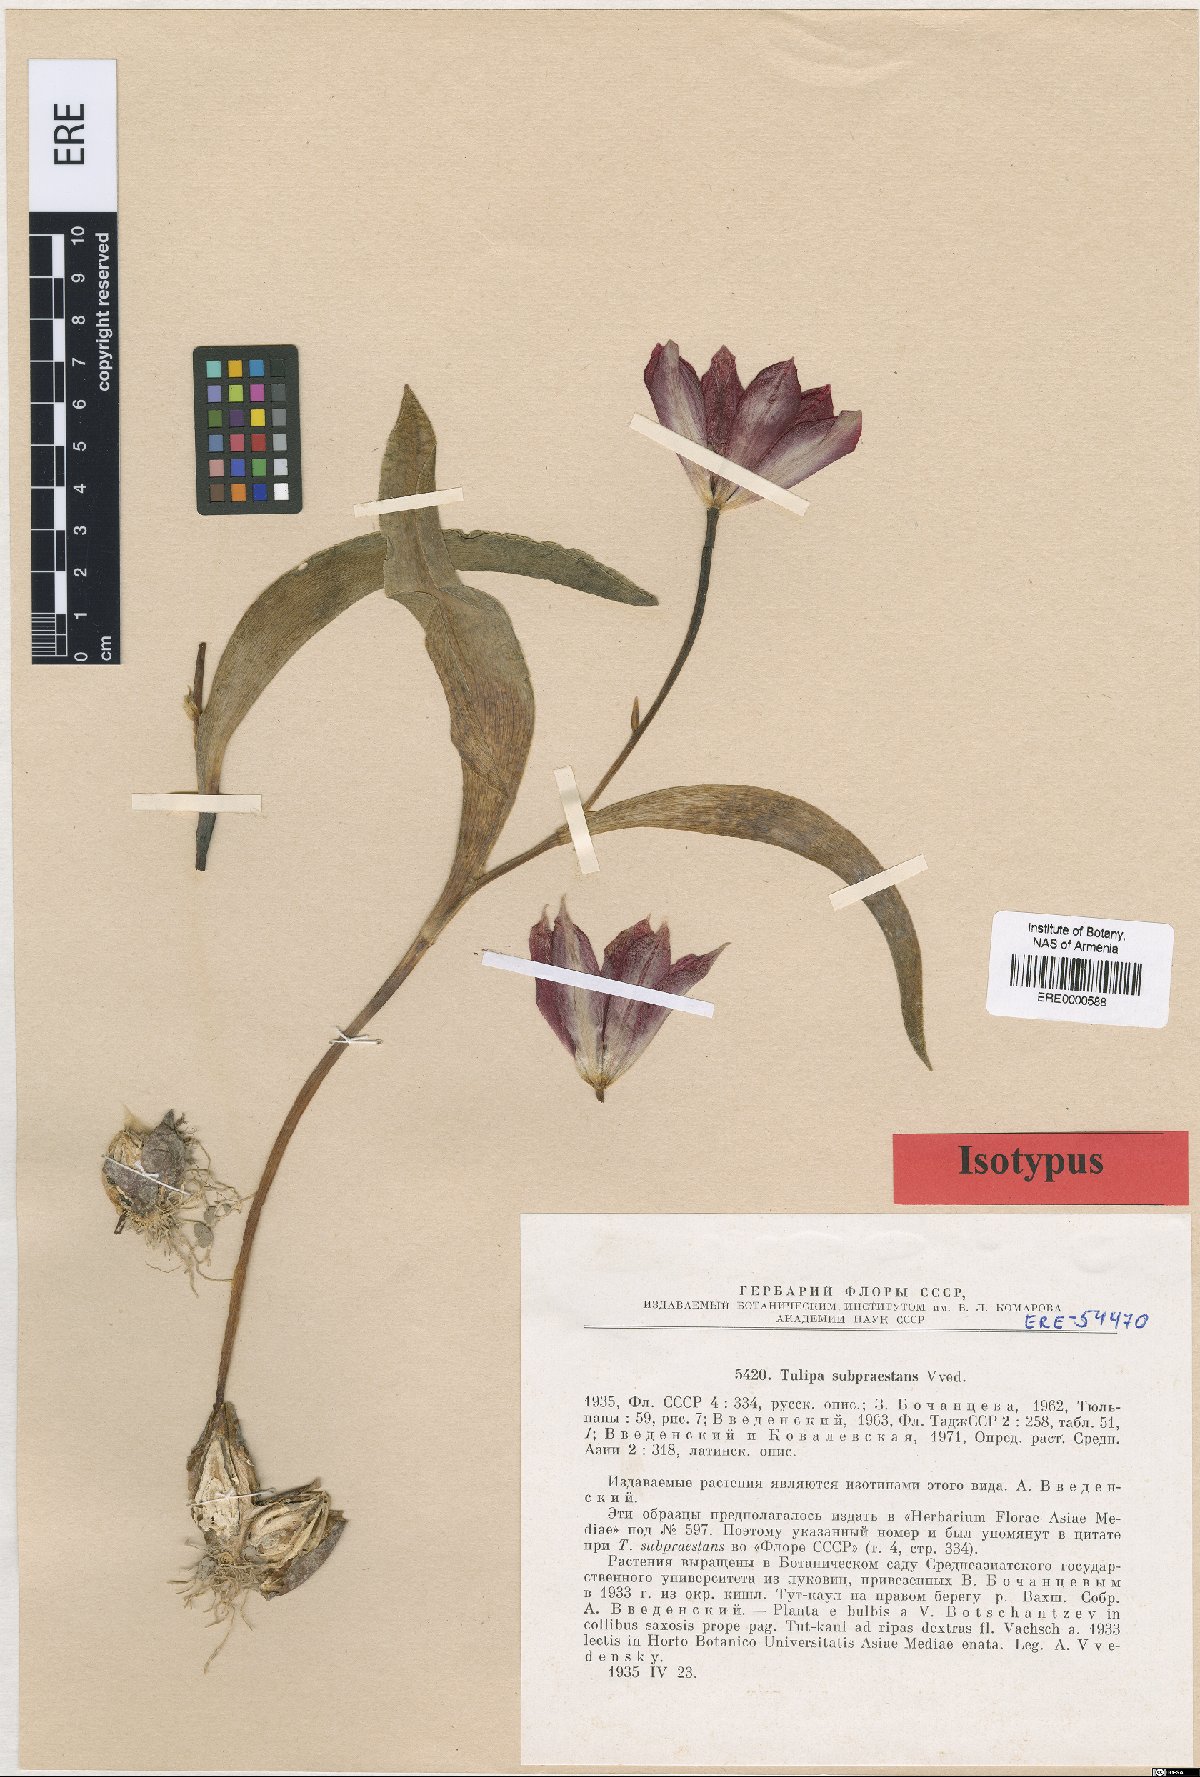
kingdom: Plantae
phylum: Tracheophyta
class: Liliopsida
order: Liliales
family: Liliaceae
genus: Tulipa
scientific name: Tulipa praestans
